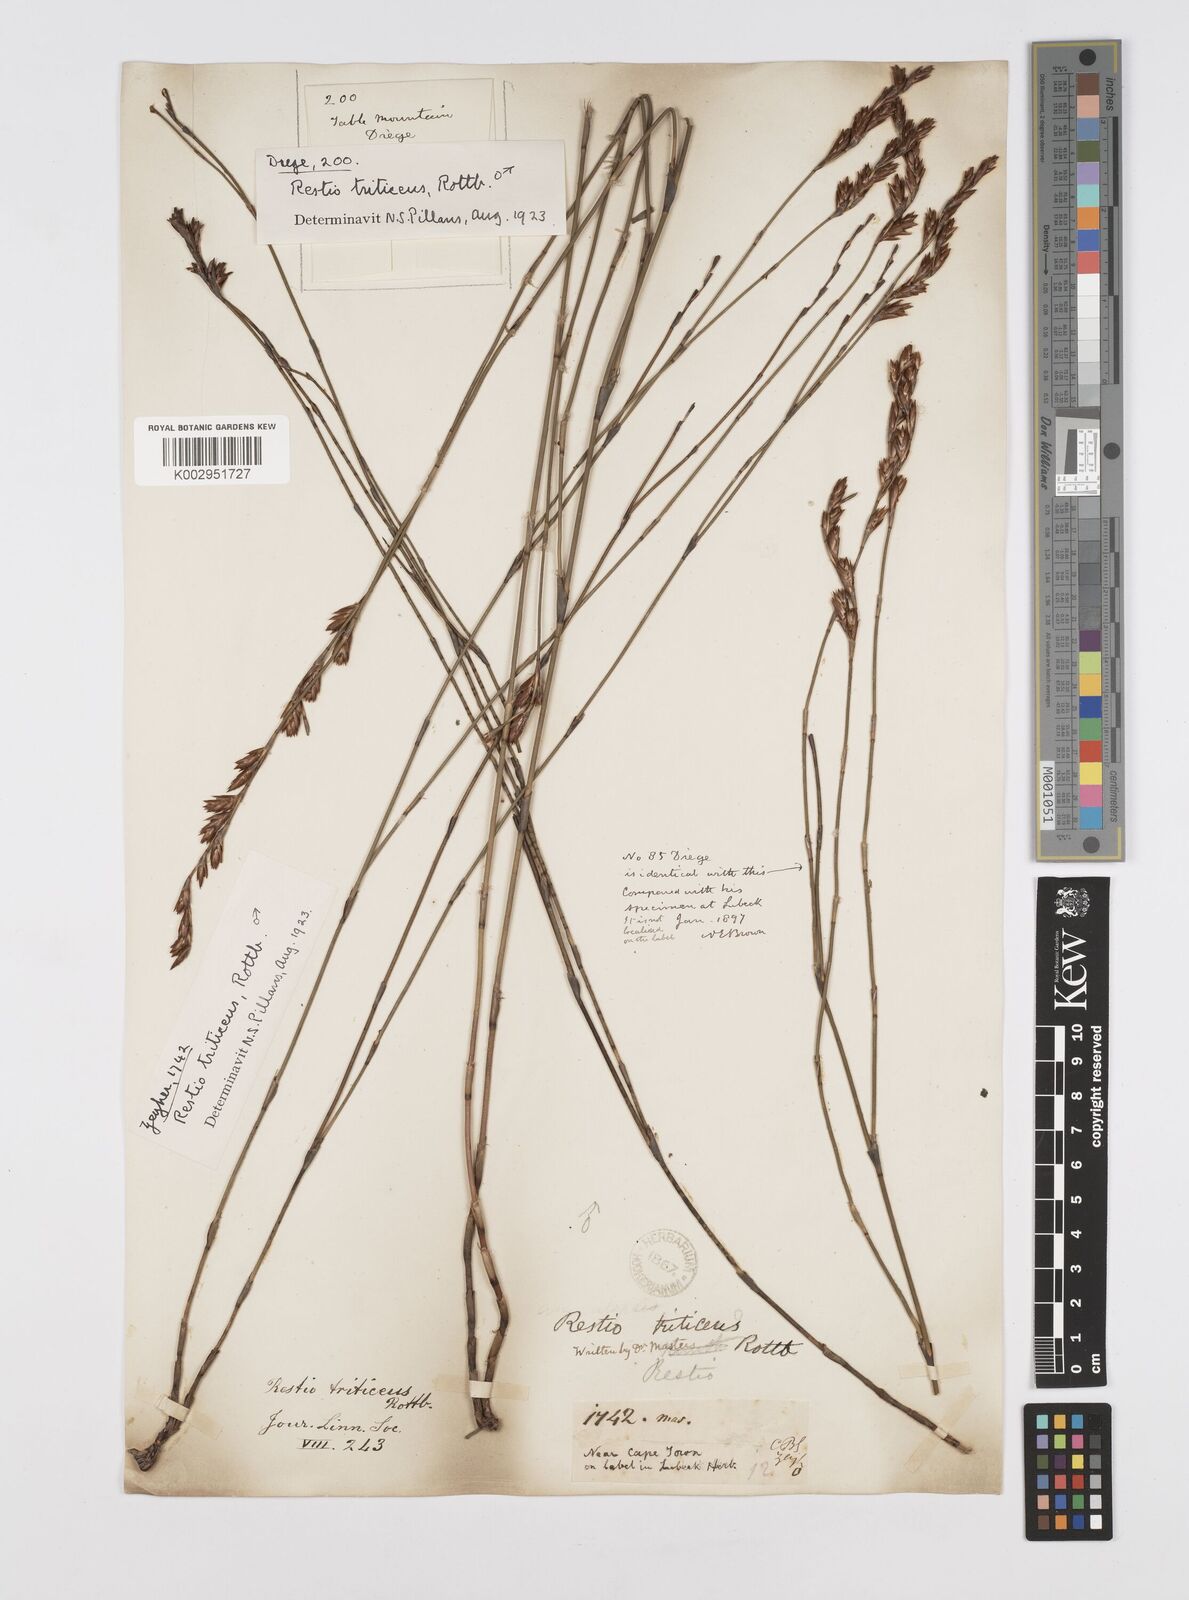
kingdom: Plantae
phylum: Tracheophyta
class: Liliopsida
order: Poales
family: Restionaceae
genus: Restio
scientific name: Restio triticeus
